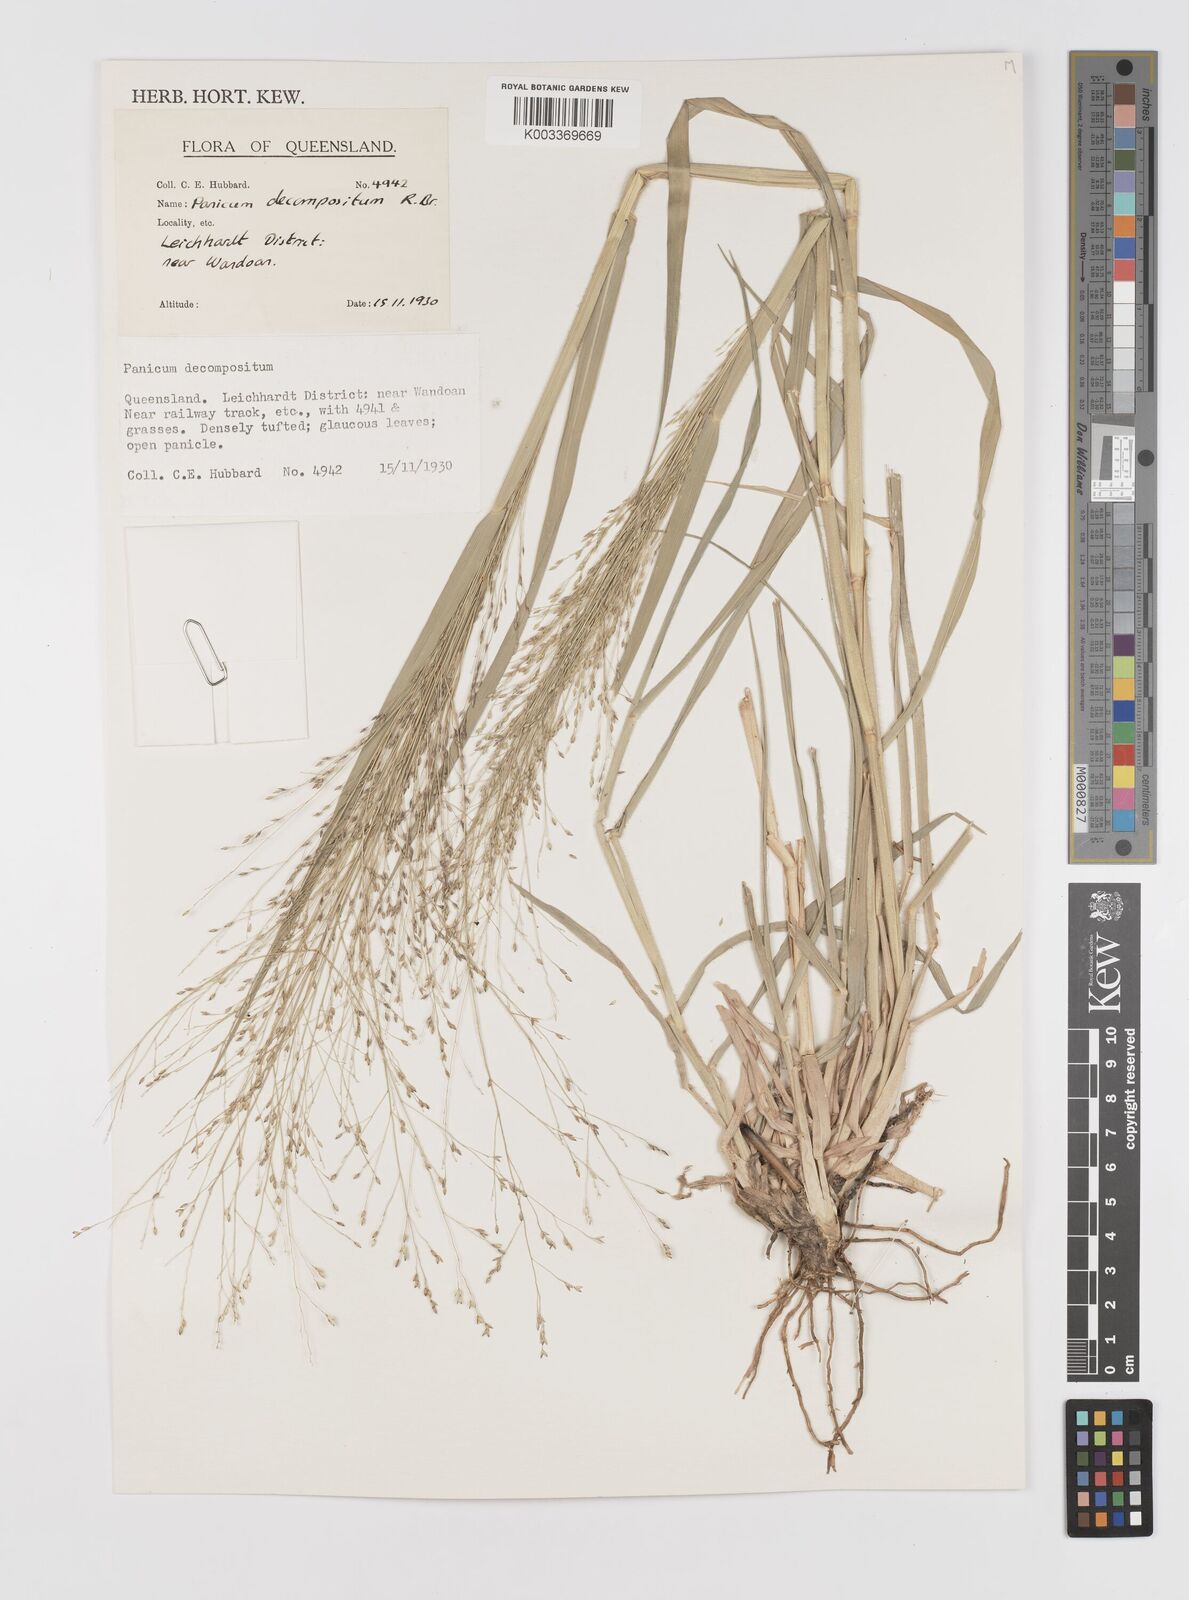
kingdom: Plantae
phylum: Tracheophyta
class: Liliopsida
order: Poales
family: Poaceae
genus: Panicum
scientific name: Panicum decompositum
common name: Australian millet
